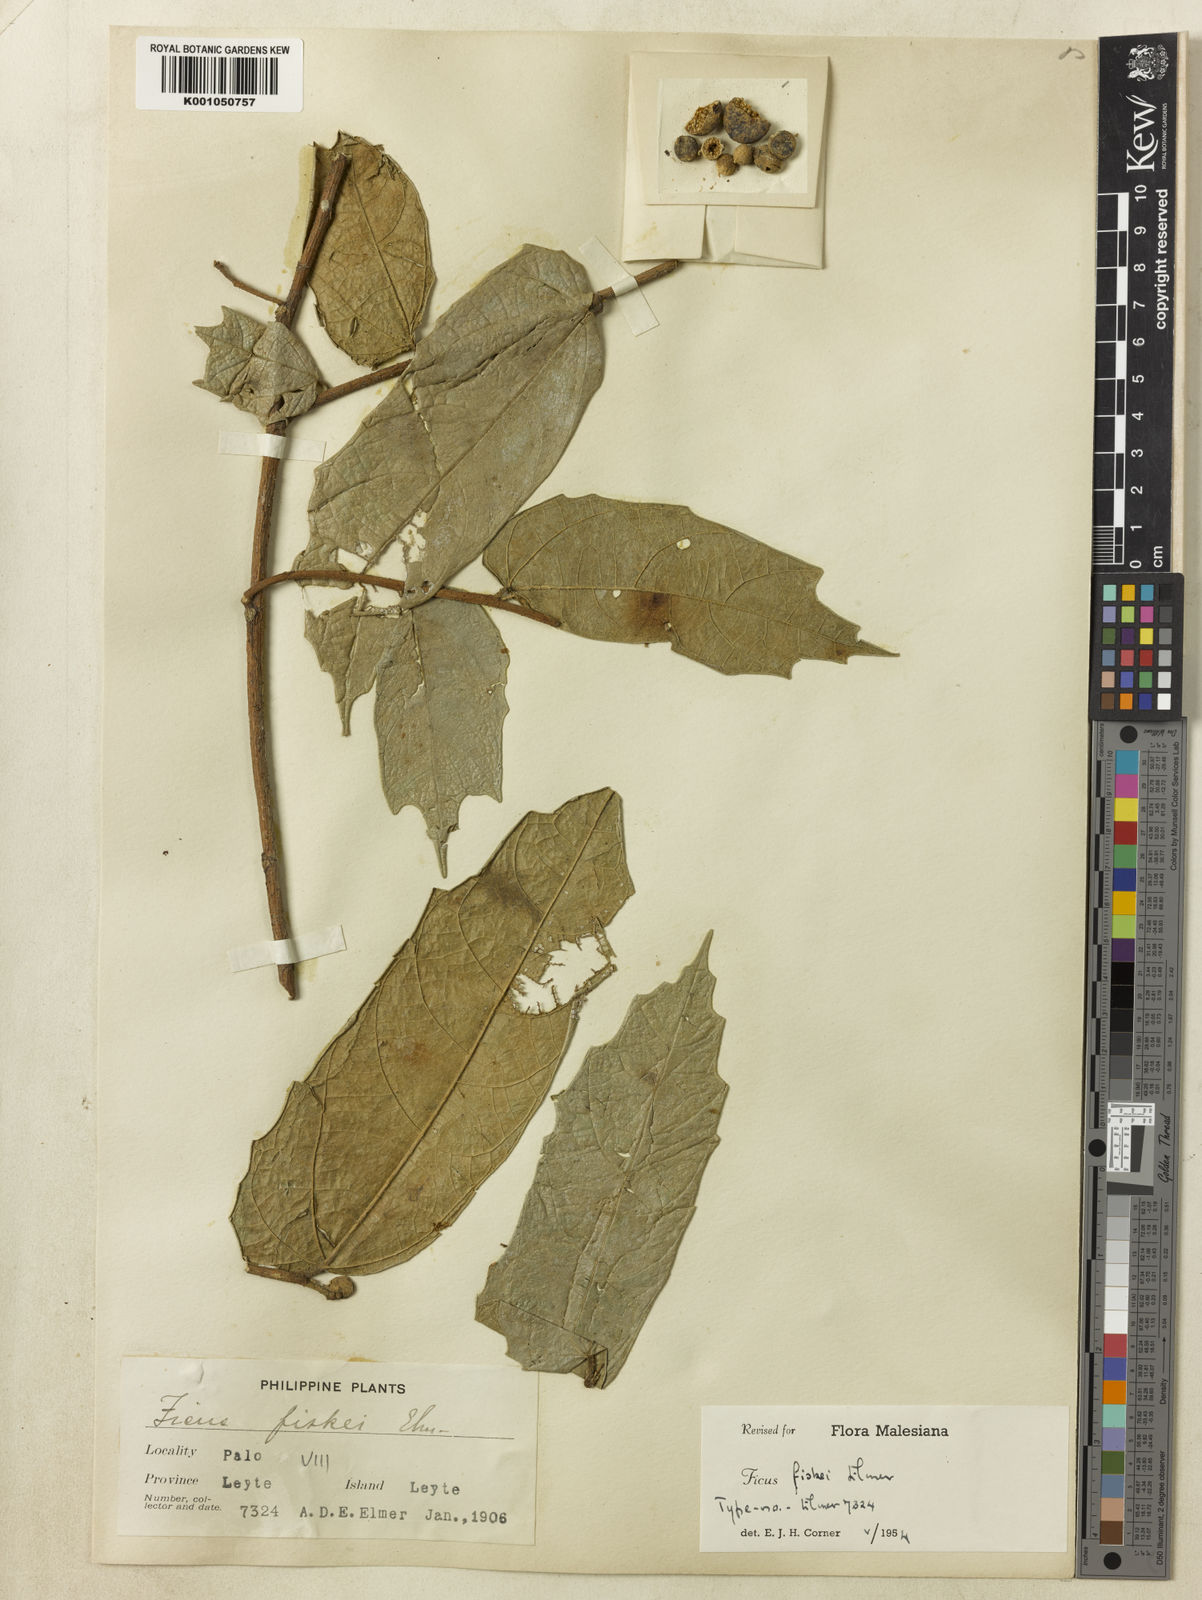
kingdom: Plantae
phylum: Tracheophyta
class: Magnoliopsida
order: Rosales
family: Moraceae
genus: Ficus
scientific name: Ficus fiskei
